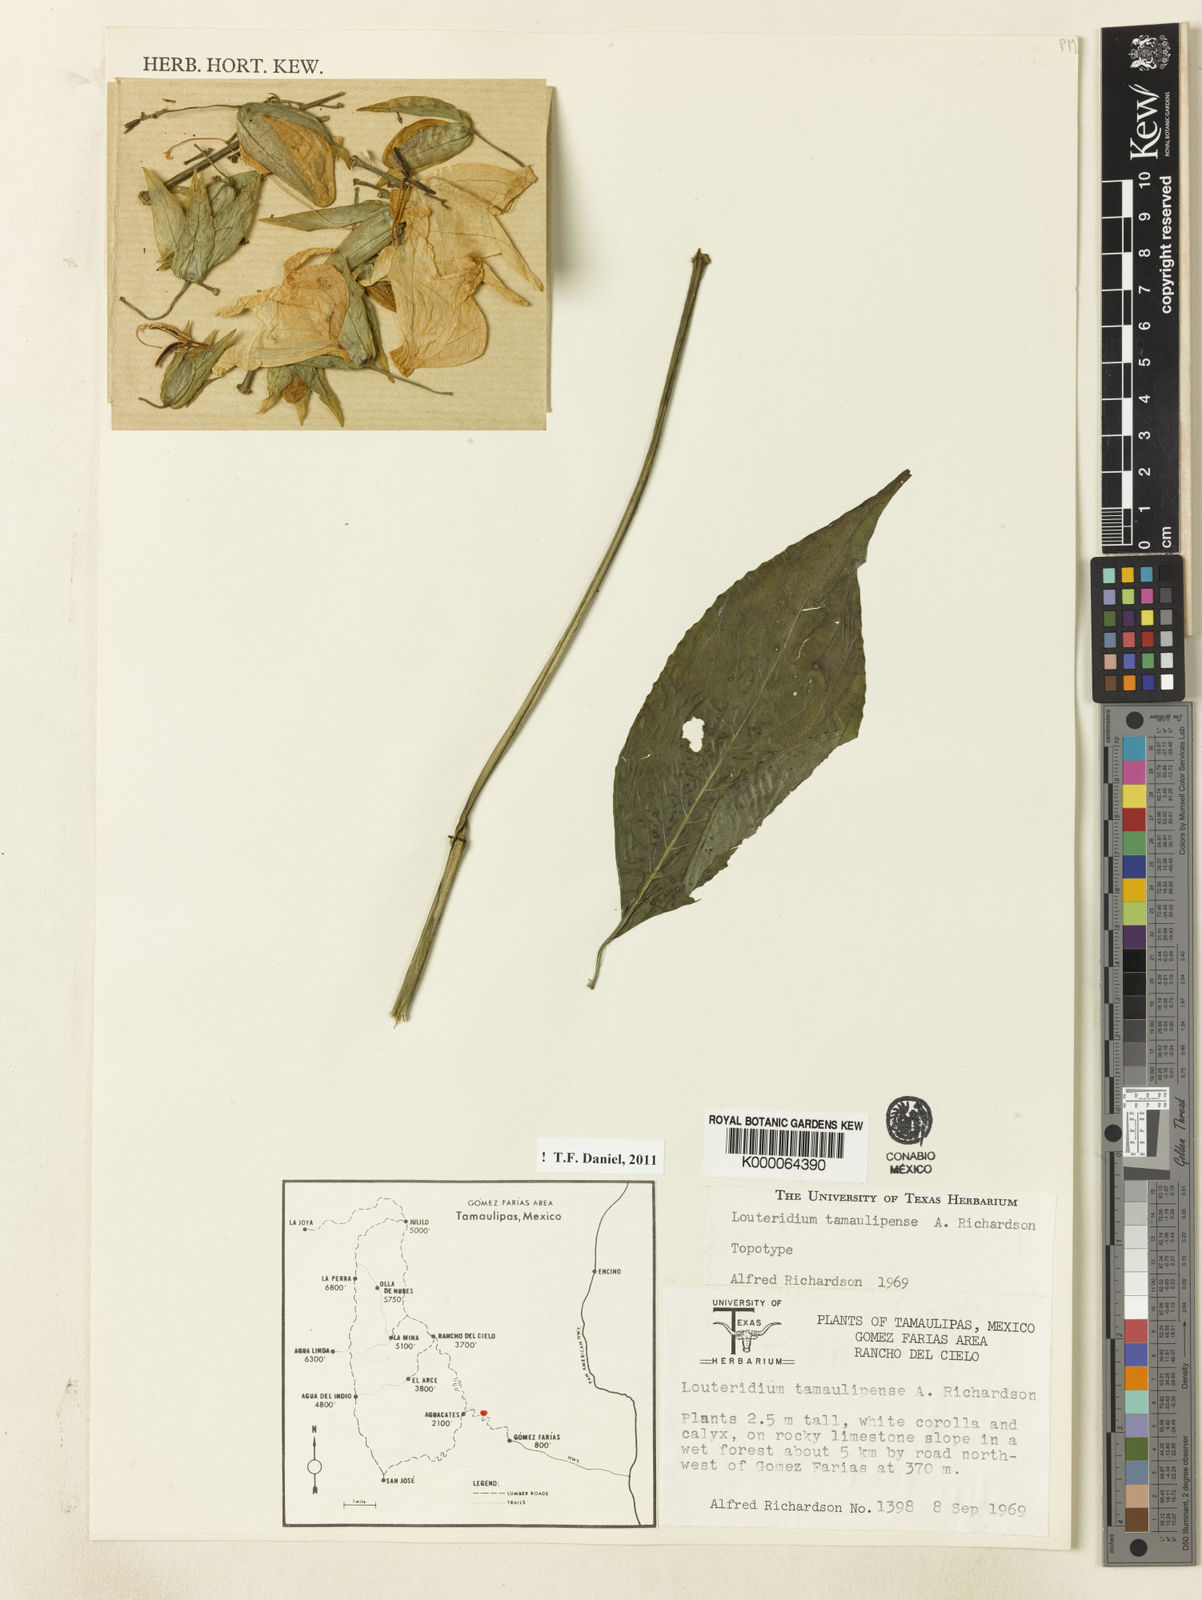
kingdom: Plantae
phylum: Tracheophyta
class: Magnoliopsida
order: Lamiales
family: Acanthaceae
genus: Louteridium
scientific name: Louteridium tamaulipense
